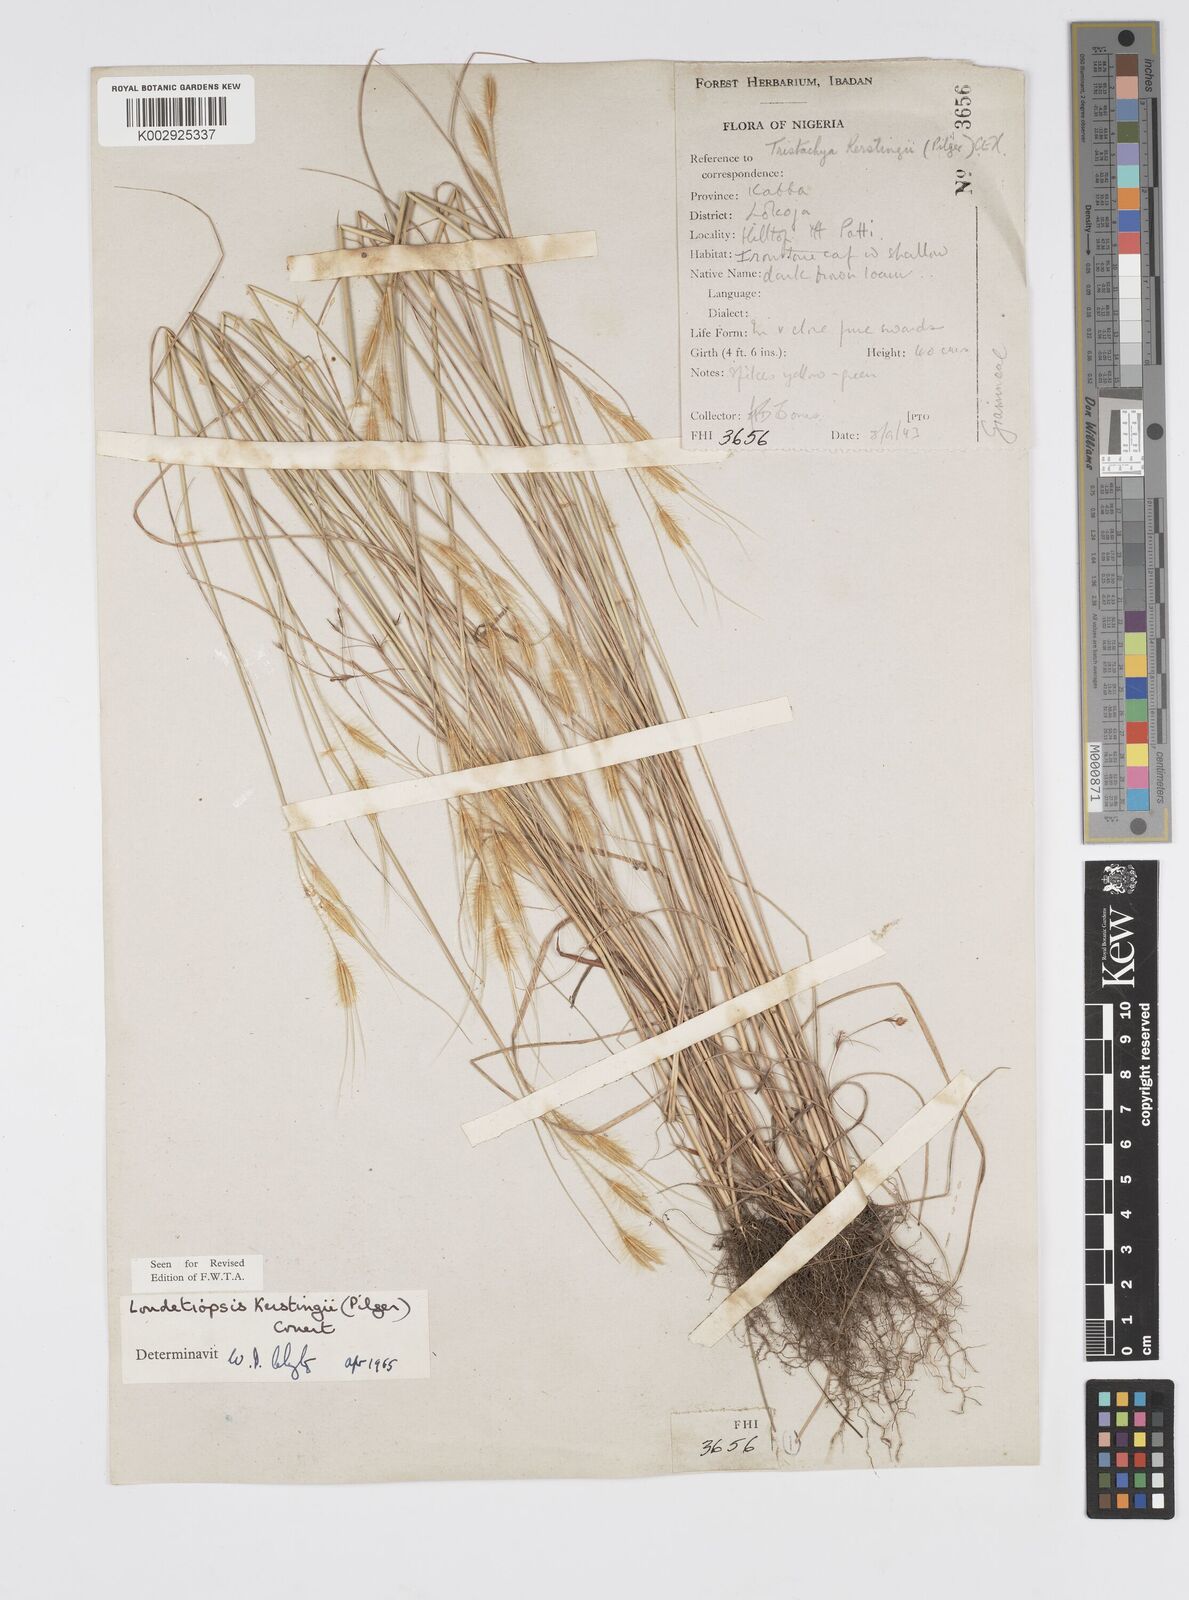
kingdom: Plantae
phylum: Tracheophyta
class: Liliopsida
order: Poales
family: Poaceae
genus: Loudetiopsis
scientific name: Loudetiopsis kerstingii
